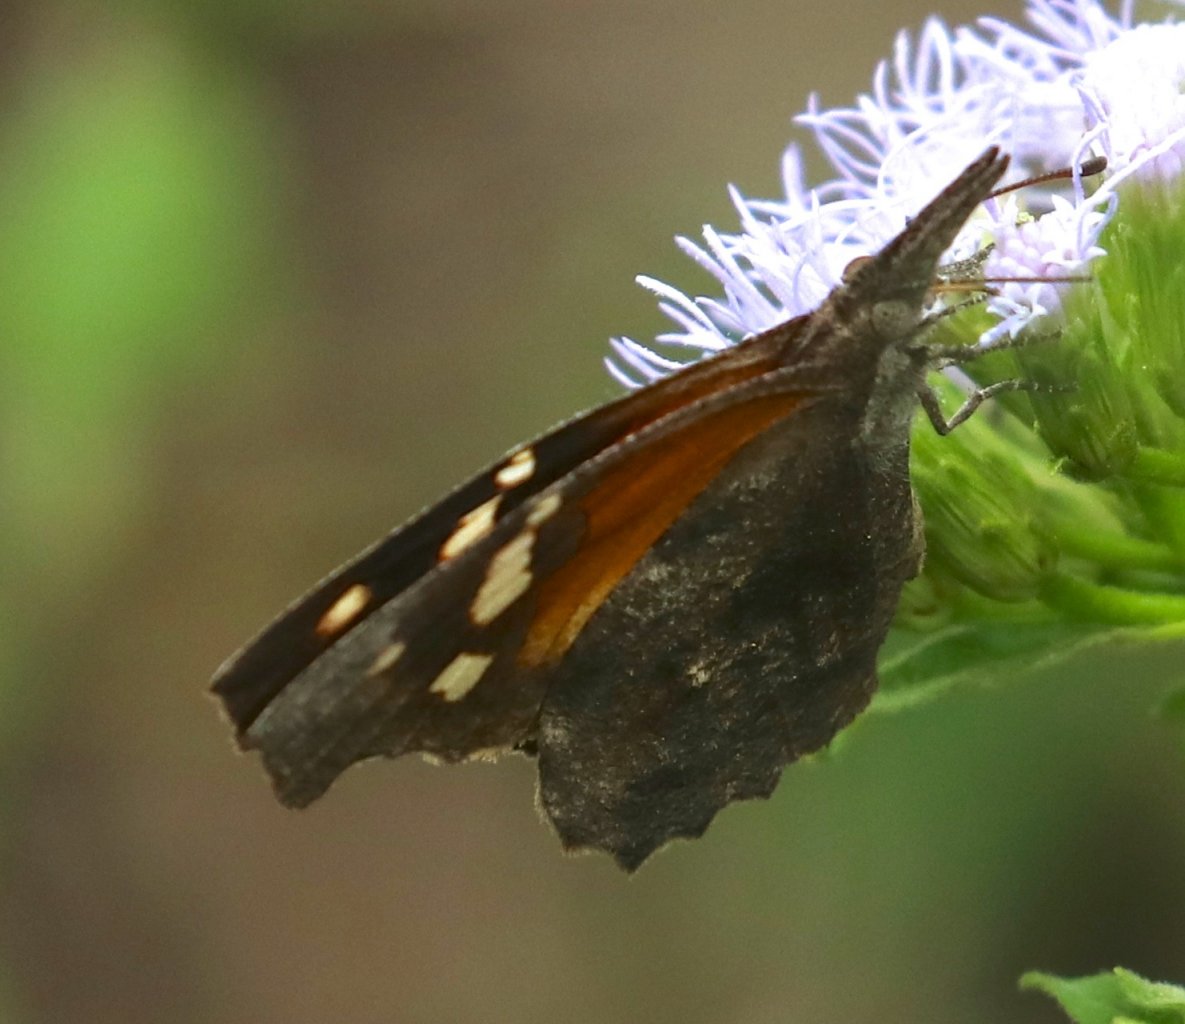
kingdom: Animalia
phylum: Arthropoda
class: Insecta
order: Lepidoptera
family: Nymphalidae
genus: Libytheana
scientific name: Libytheana carinenta
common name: American Snout
